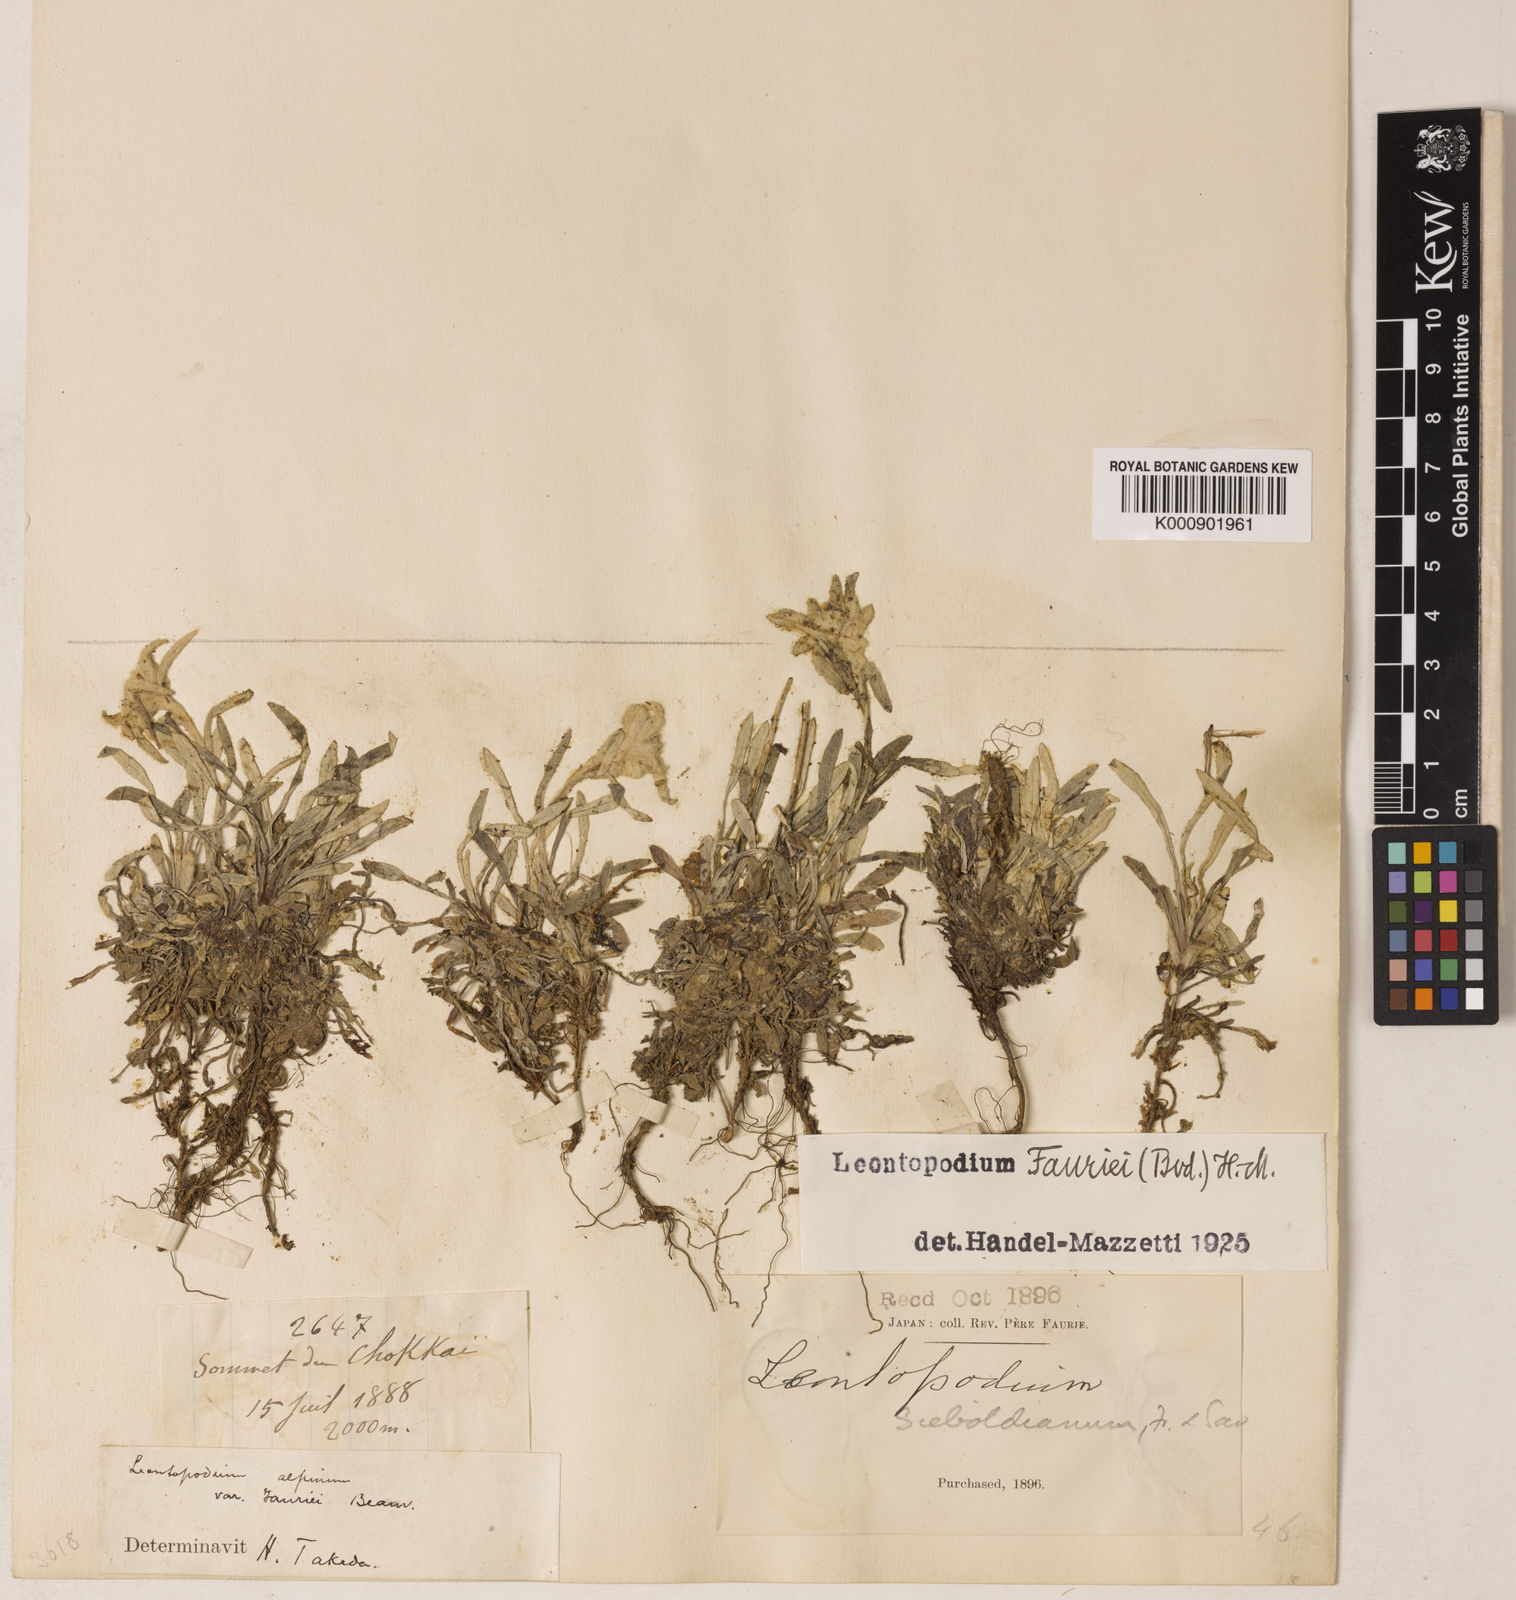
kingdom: Plantae
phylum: Tracheophyta
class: Magnoliopsida
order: Asterales
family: Asteraceae
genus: Leontopodium
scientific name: Leontopodium fauriei
